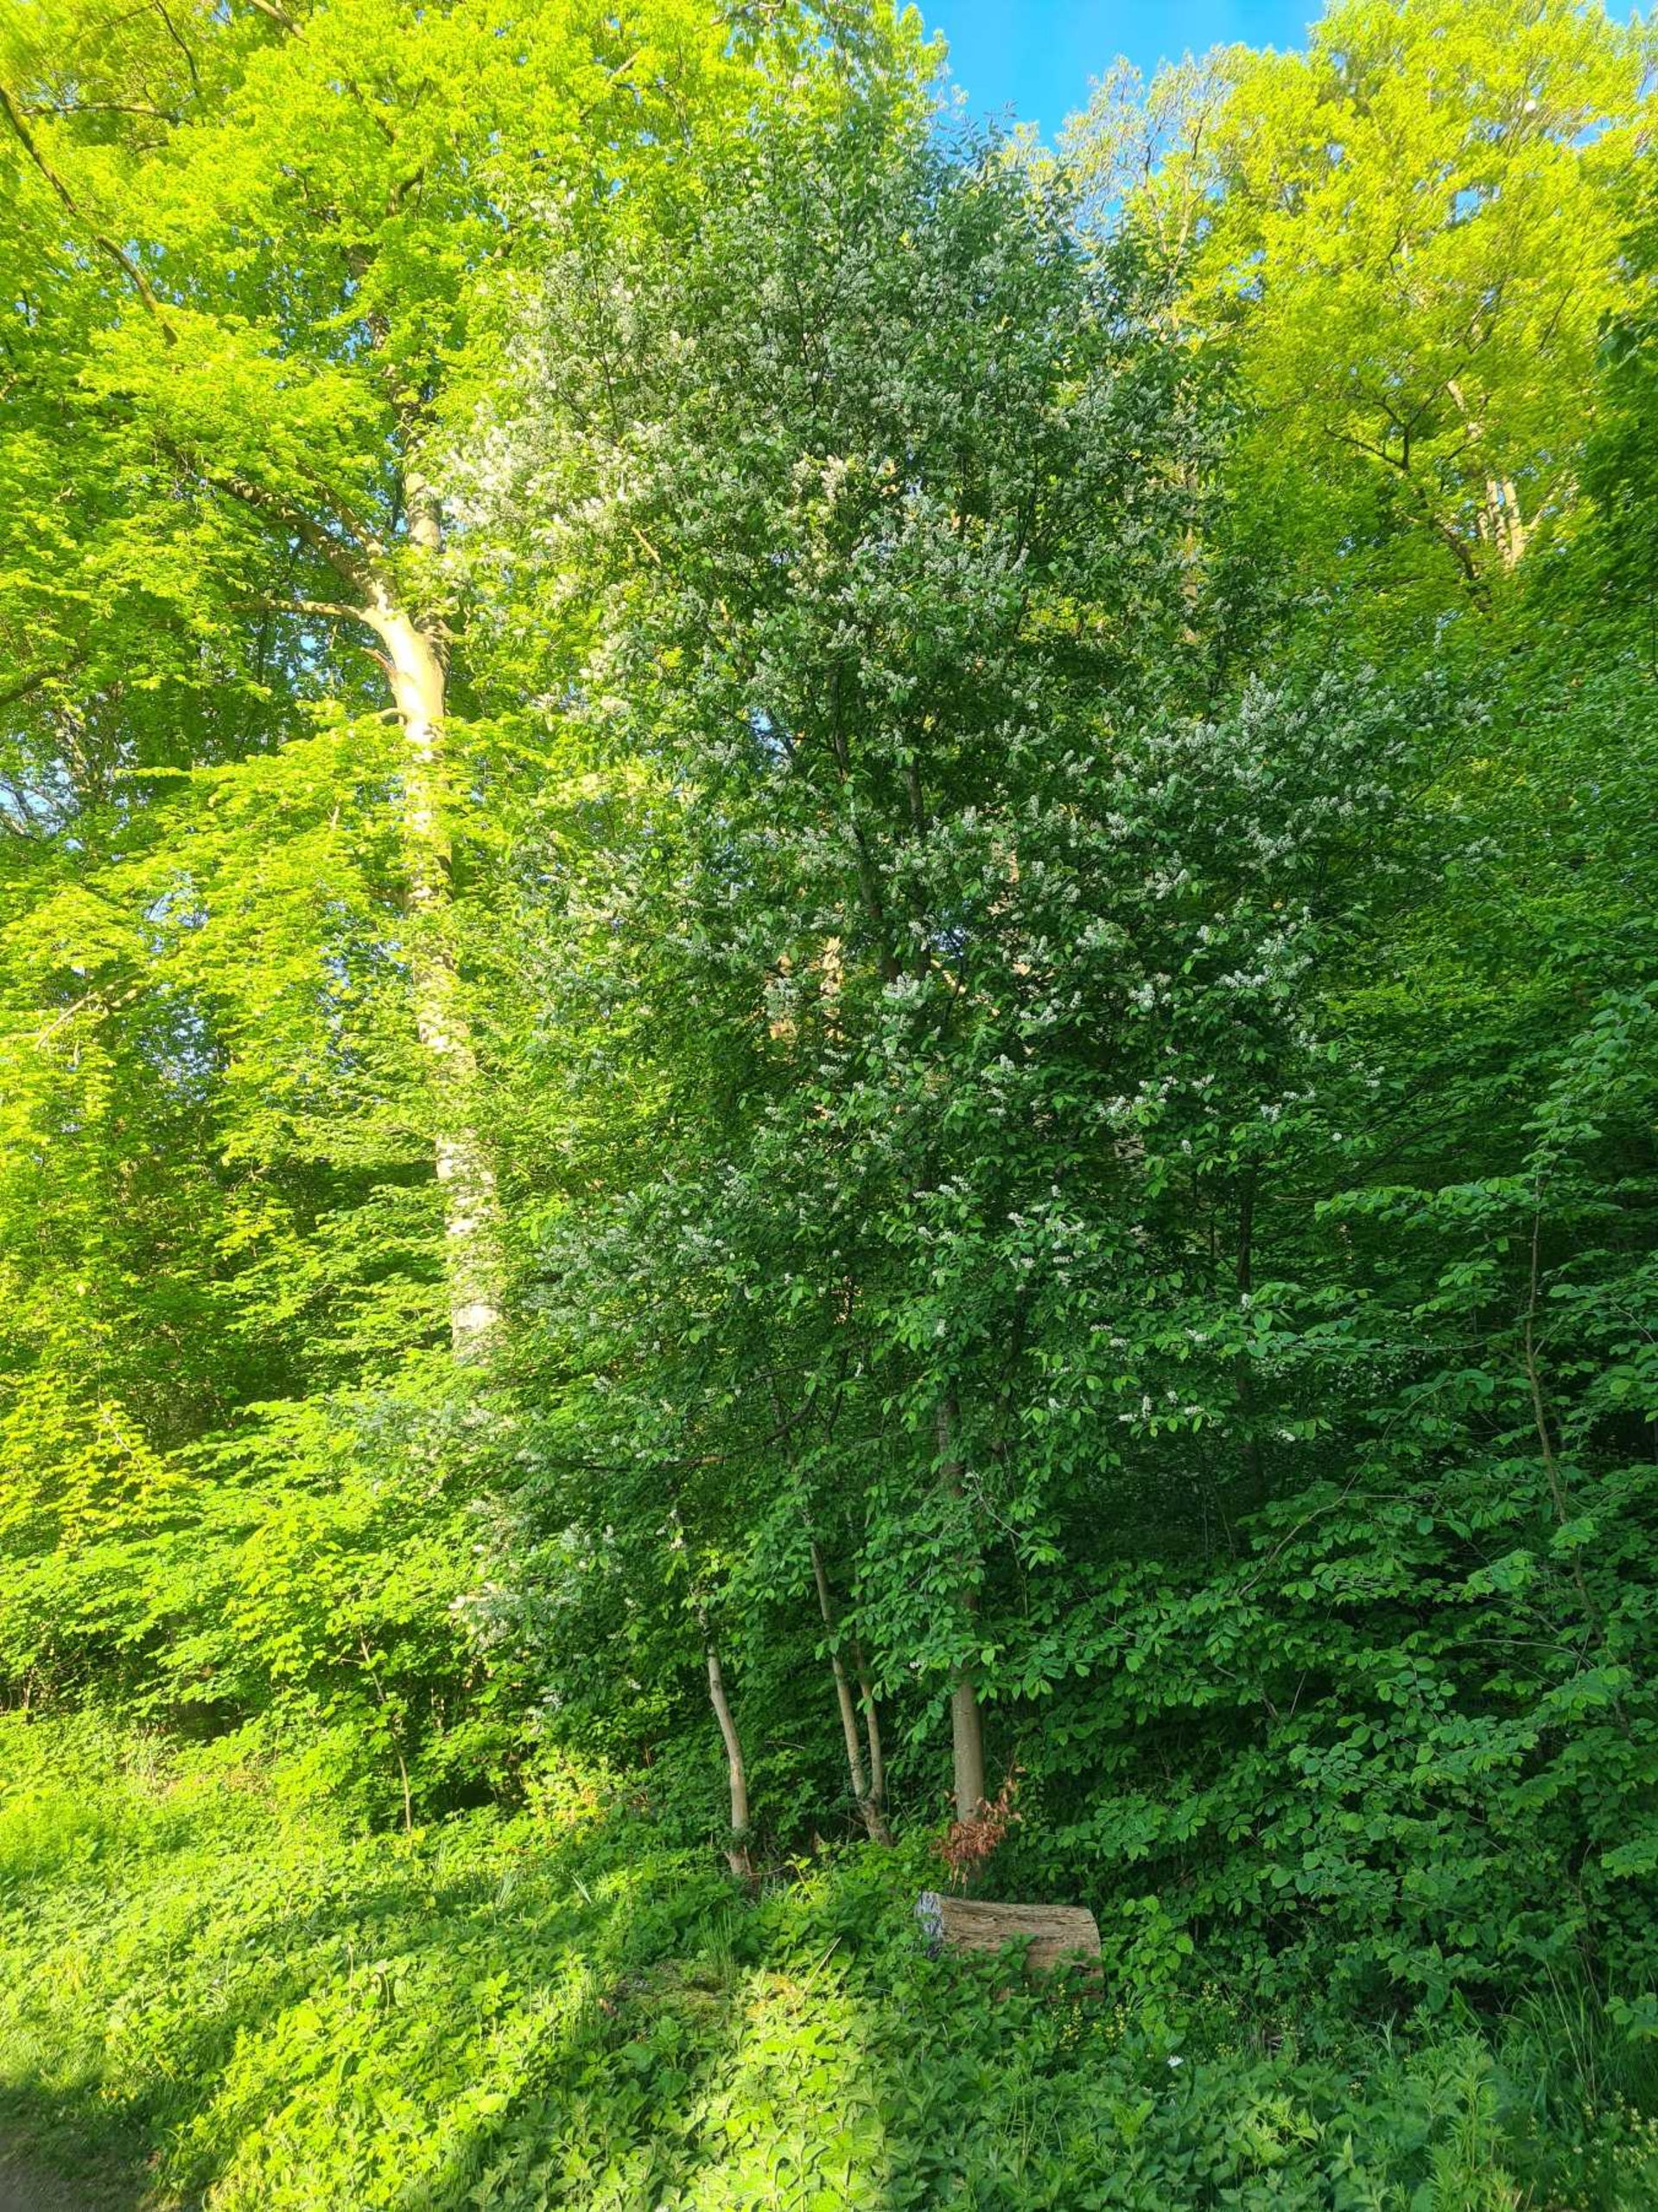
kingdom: Plantae
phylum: Tracheophyta
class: Magnoliopsida
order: Rosales
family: Rosaceae
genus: Prunus
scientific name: Prunus padus
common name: Almindelig hæg
